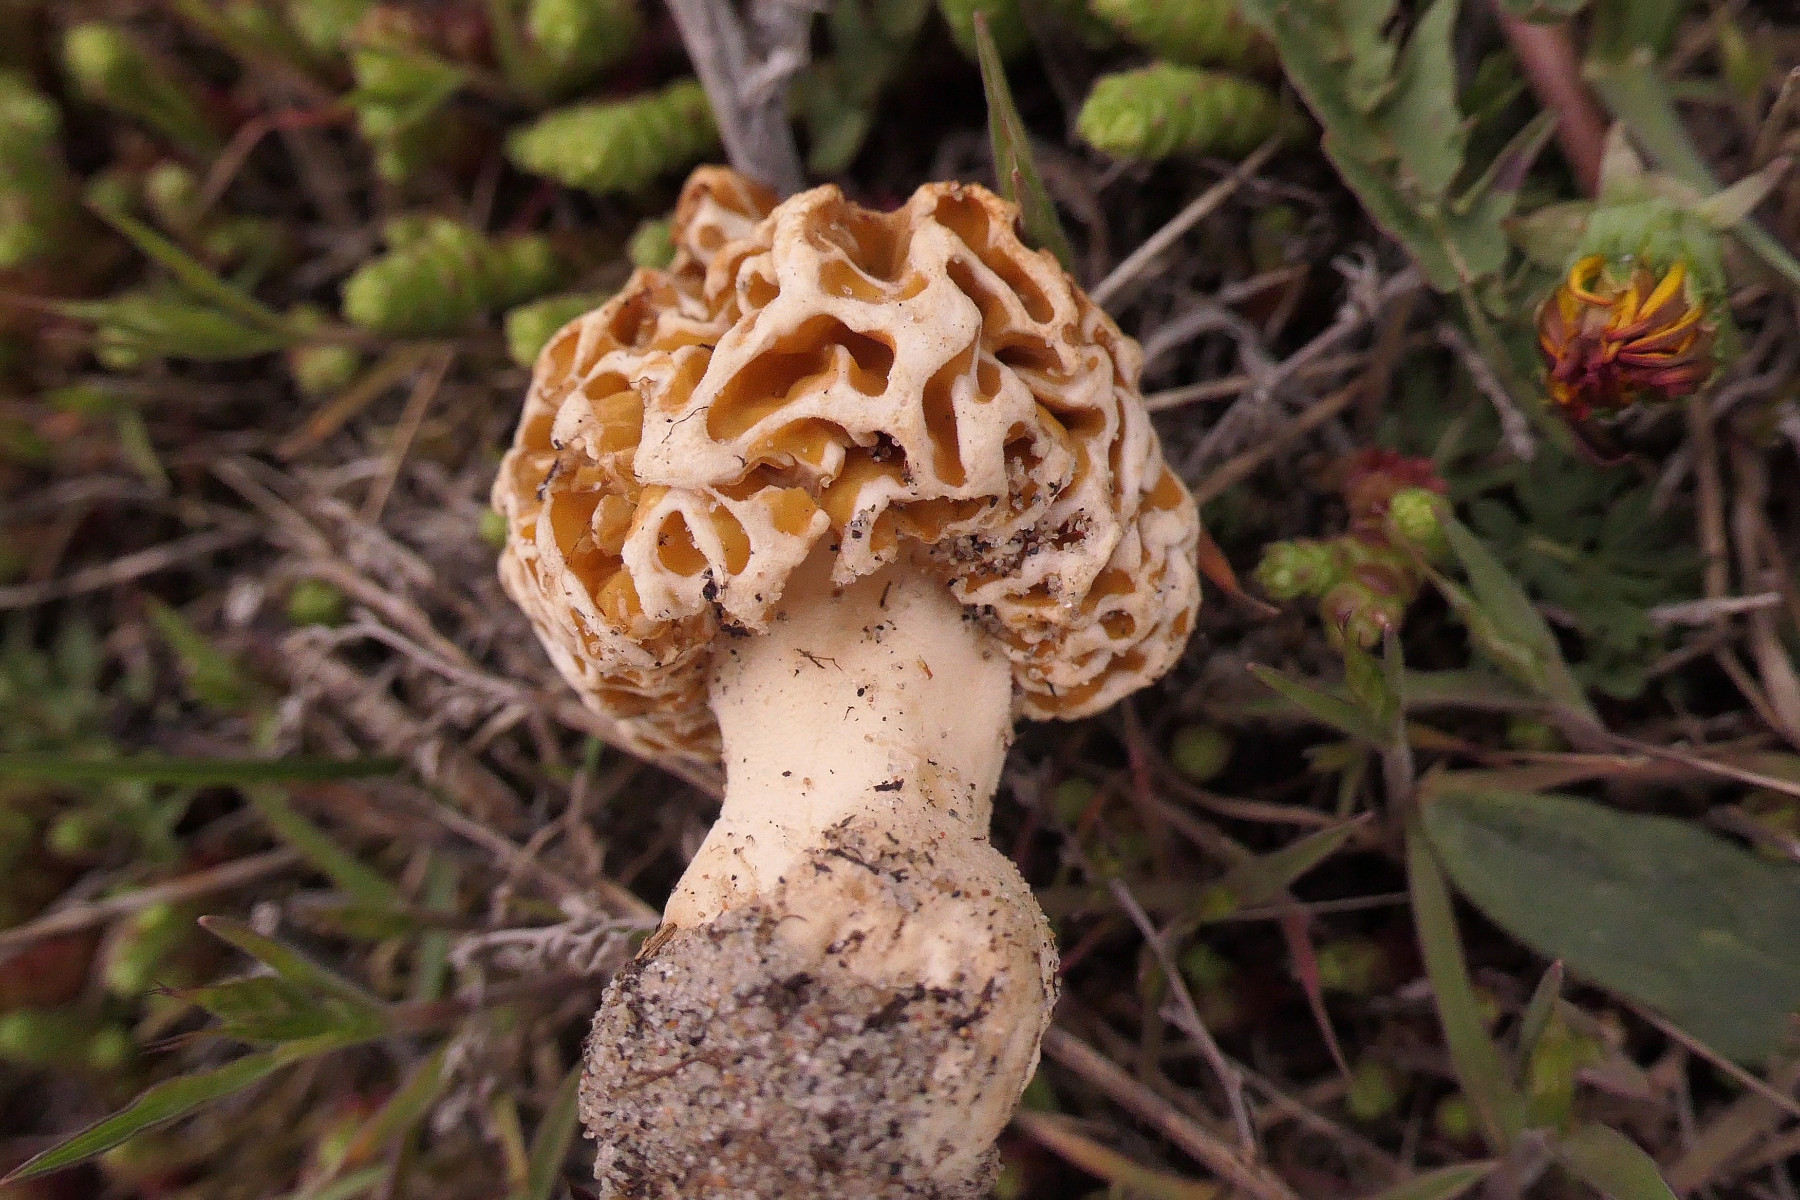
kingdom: Fungi
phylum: Ascomycota
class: Pezizomycetes
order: Pezizales
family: Morchellaceae
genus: Morchella
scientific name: Morchella esculenta
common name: Morel
